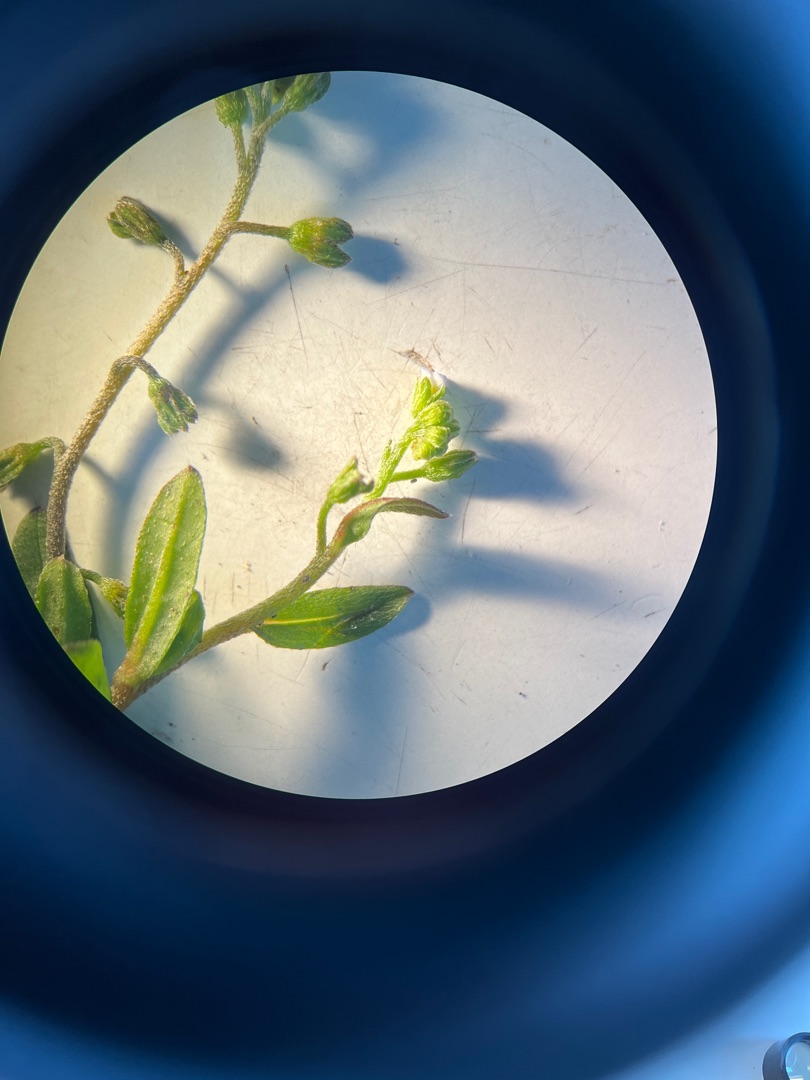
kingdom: Plantae
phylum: Tracheophyta
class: Magnoliopsida
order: Boraginales
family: Boraginaceae
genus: Myosotis
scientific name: Myosotis laxa
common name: Sump-forglemmigej
